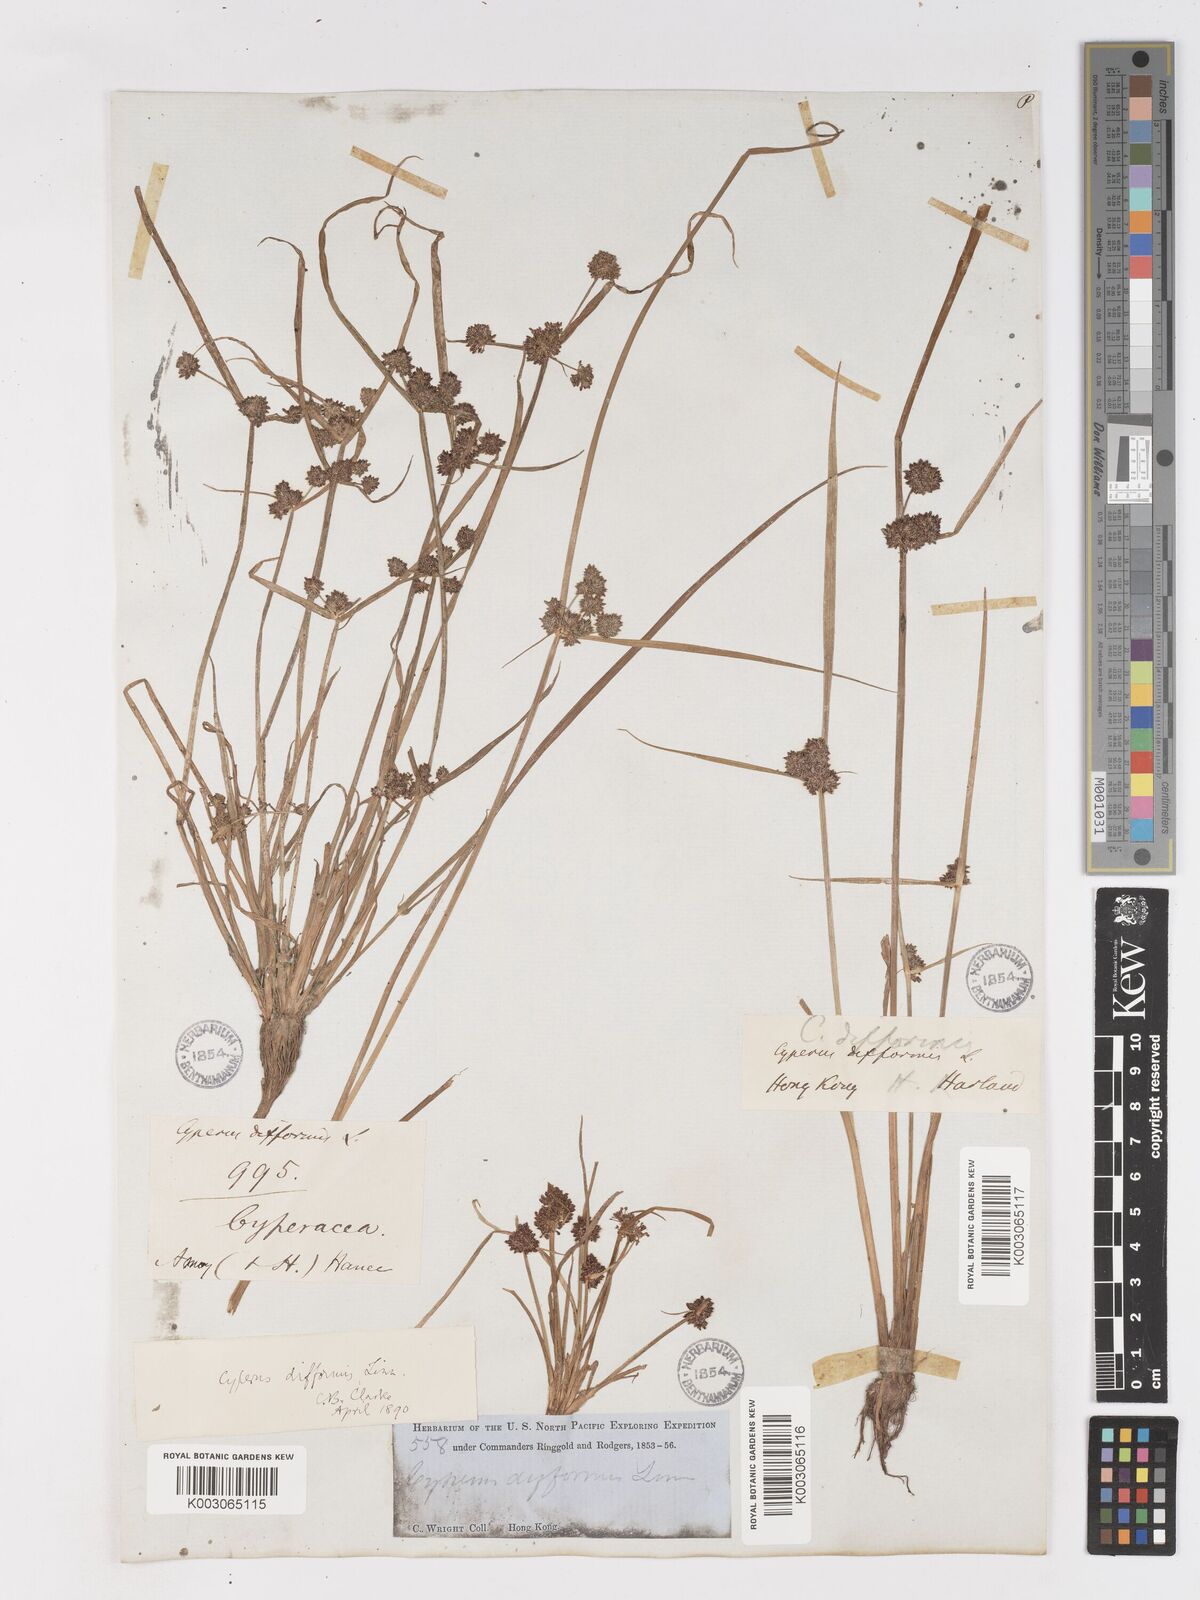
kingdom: Plantae
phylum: Tracheophyta
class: Liliopsida
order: Poales
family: Cyperaceae
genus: Cyperus
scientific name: Cyperus difformis
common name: Variable flatsedge
